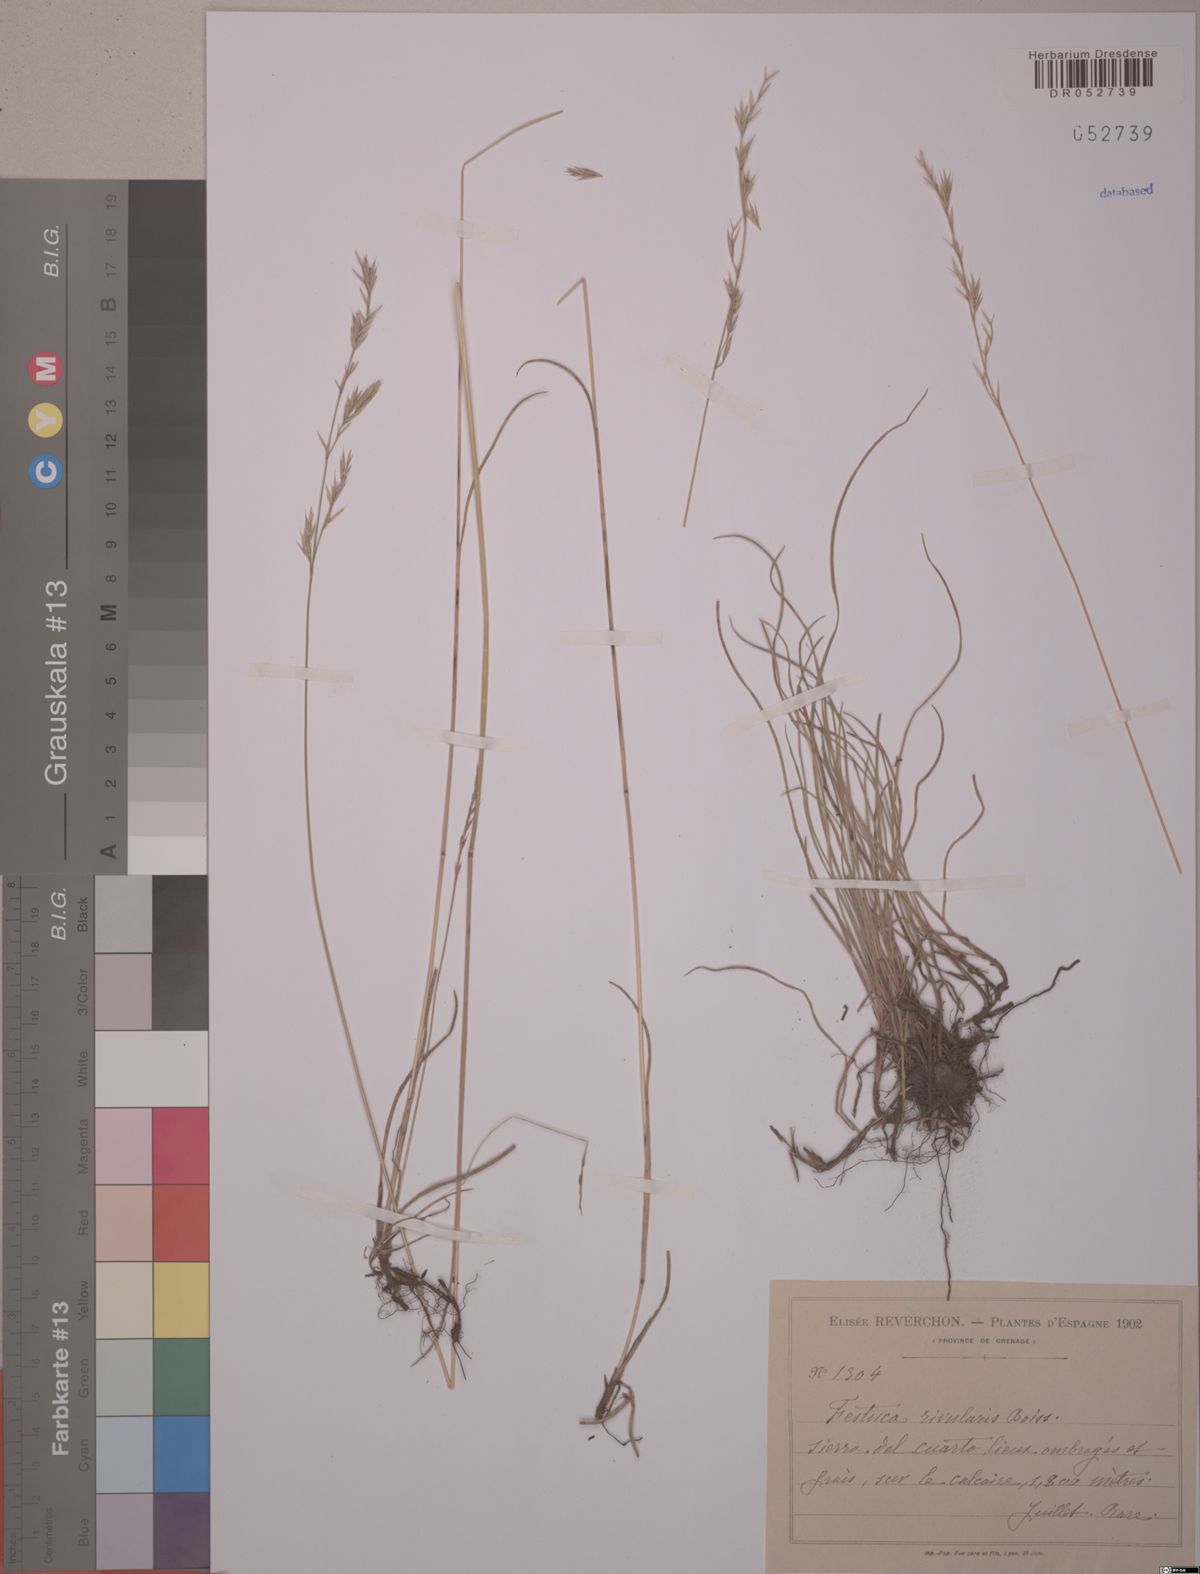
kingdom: Plantae
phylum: Tracheophyta
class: Liliopsida
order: Poales
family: Poaceae
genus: Festuca
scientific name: Festuca rivularis
